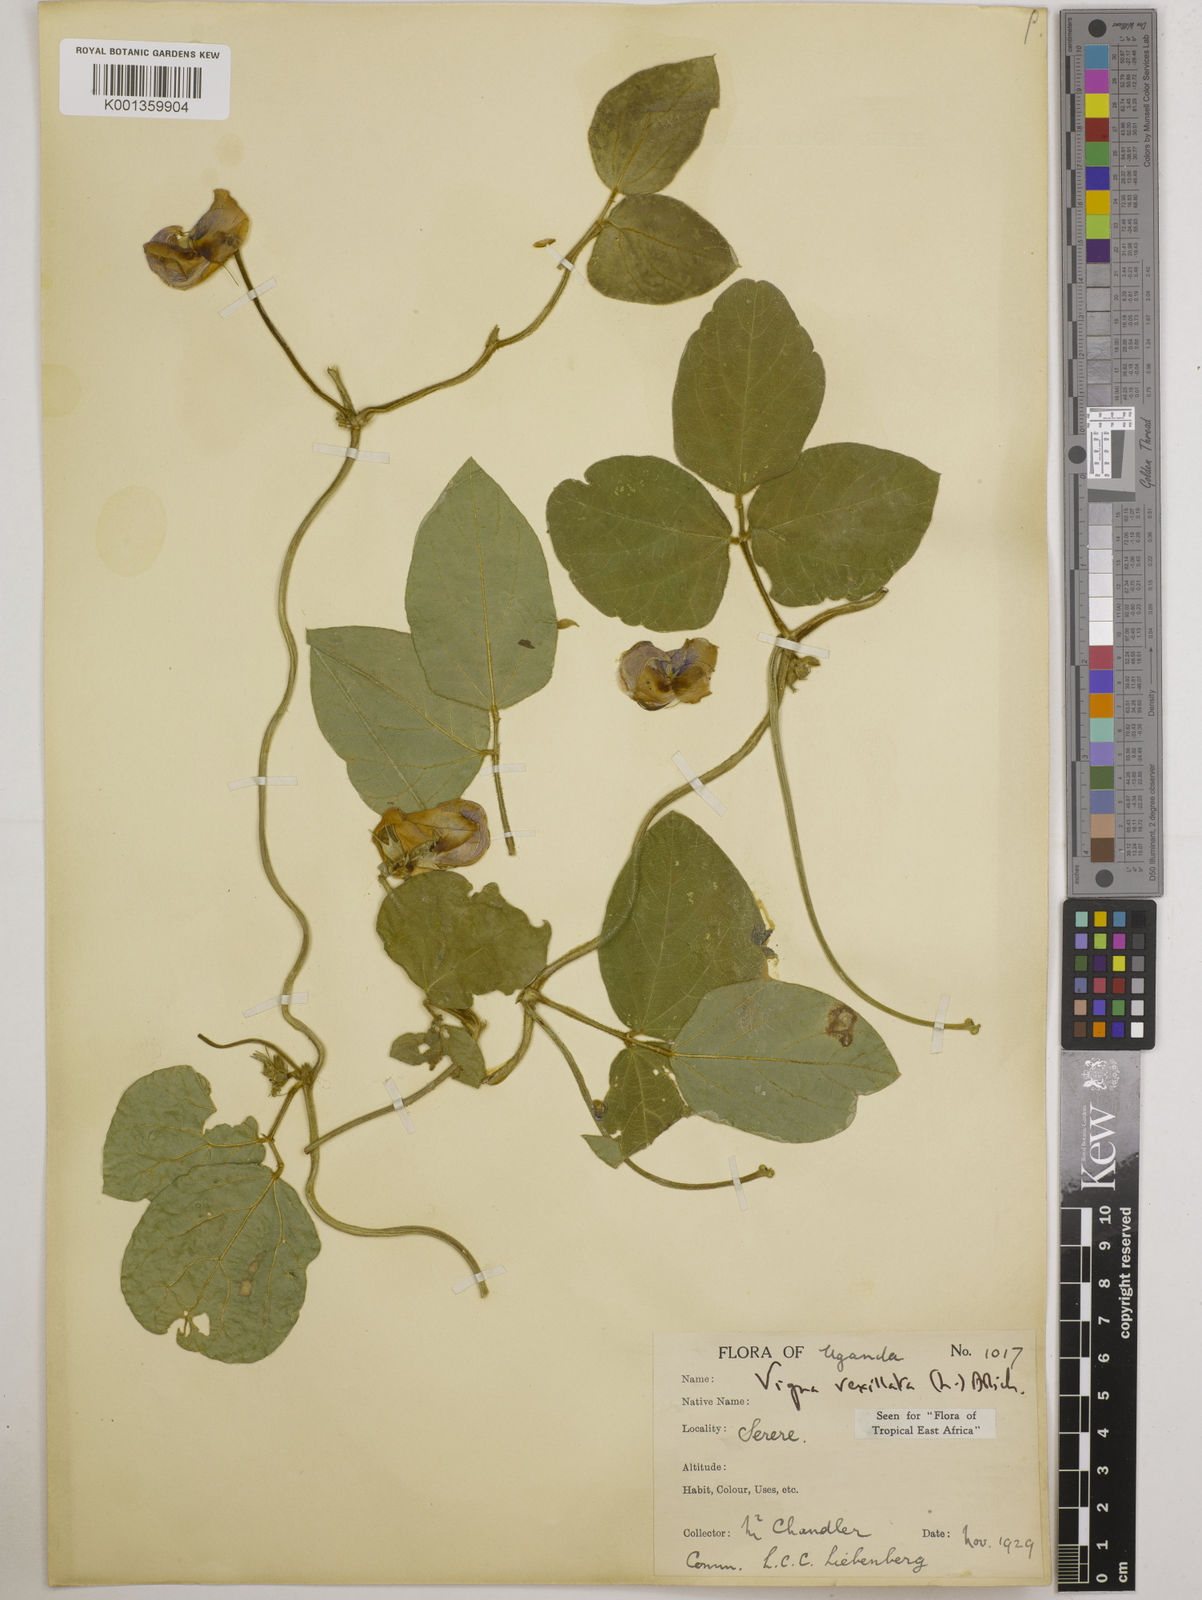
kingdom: Plantae
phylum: Tracheophyta
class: Magnoliopsida
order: Fabales
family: Fabaceae
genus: Vigna
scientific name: Vigna vexillata
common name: Zombi pea
